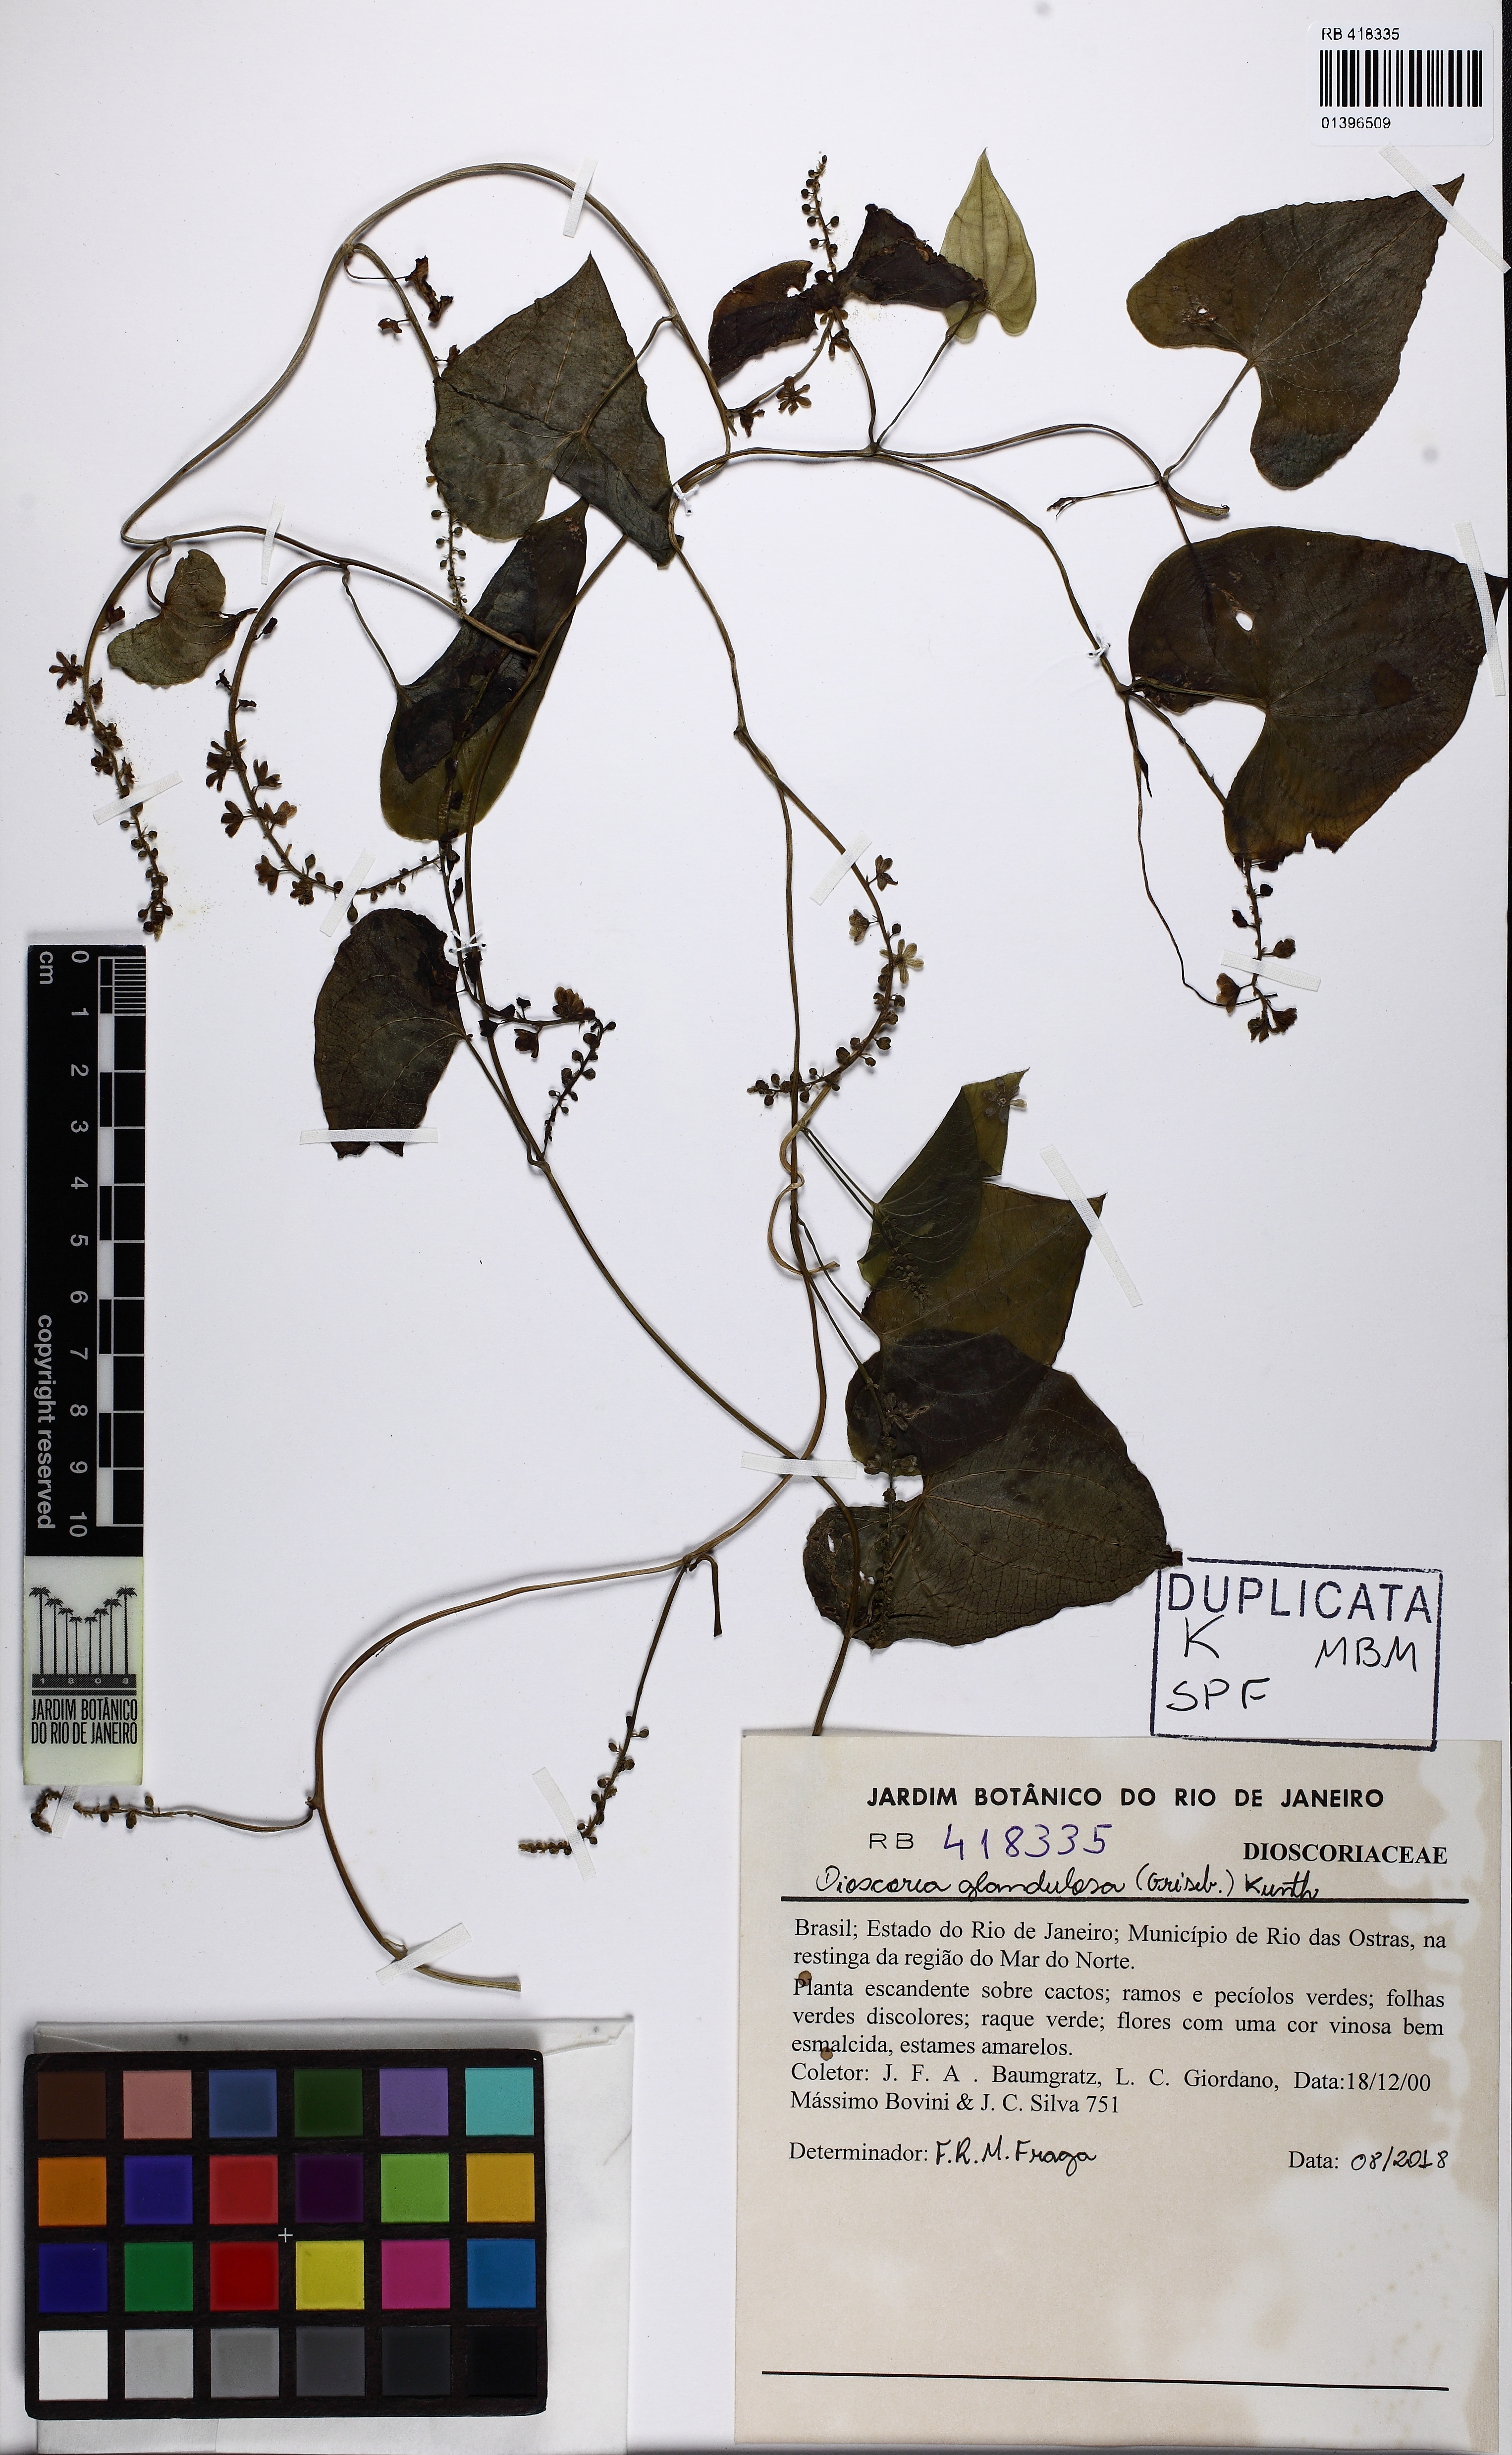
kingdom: Plantae
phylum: Tracheophyta
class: Liliopsida
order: Dioscoreales
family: Dioscoreaceae
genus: Dioscorea
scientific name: Dioscorea glandulosa
